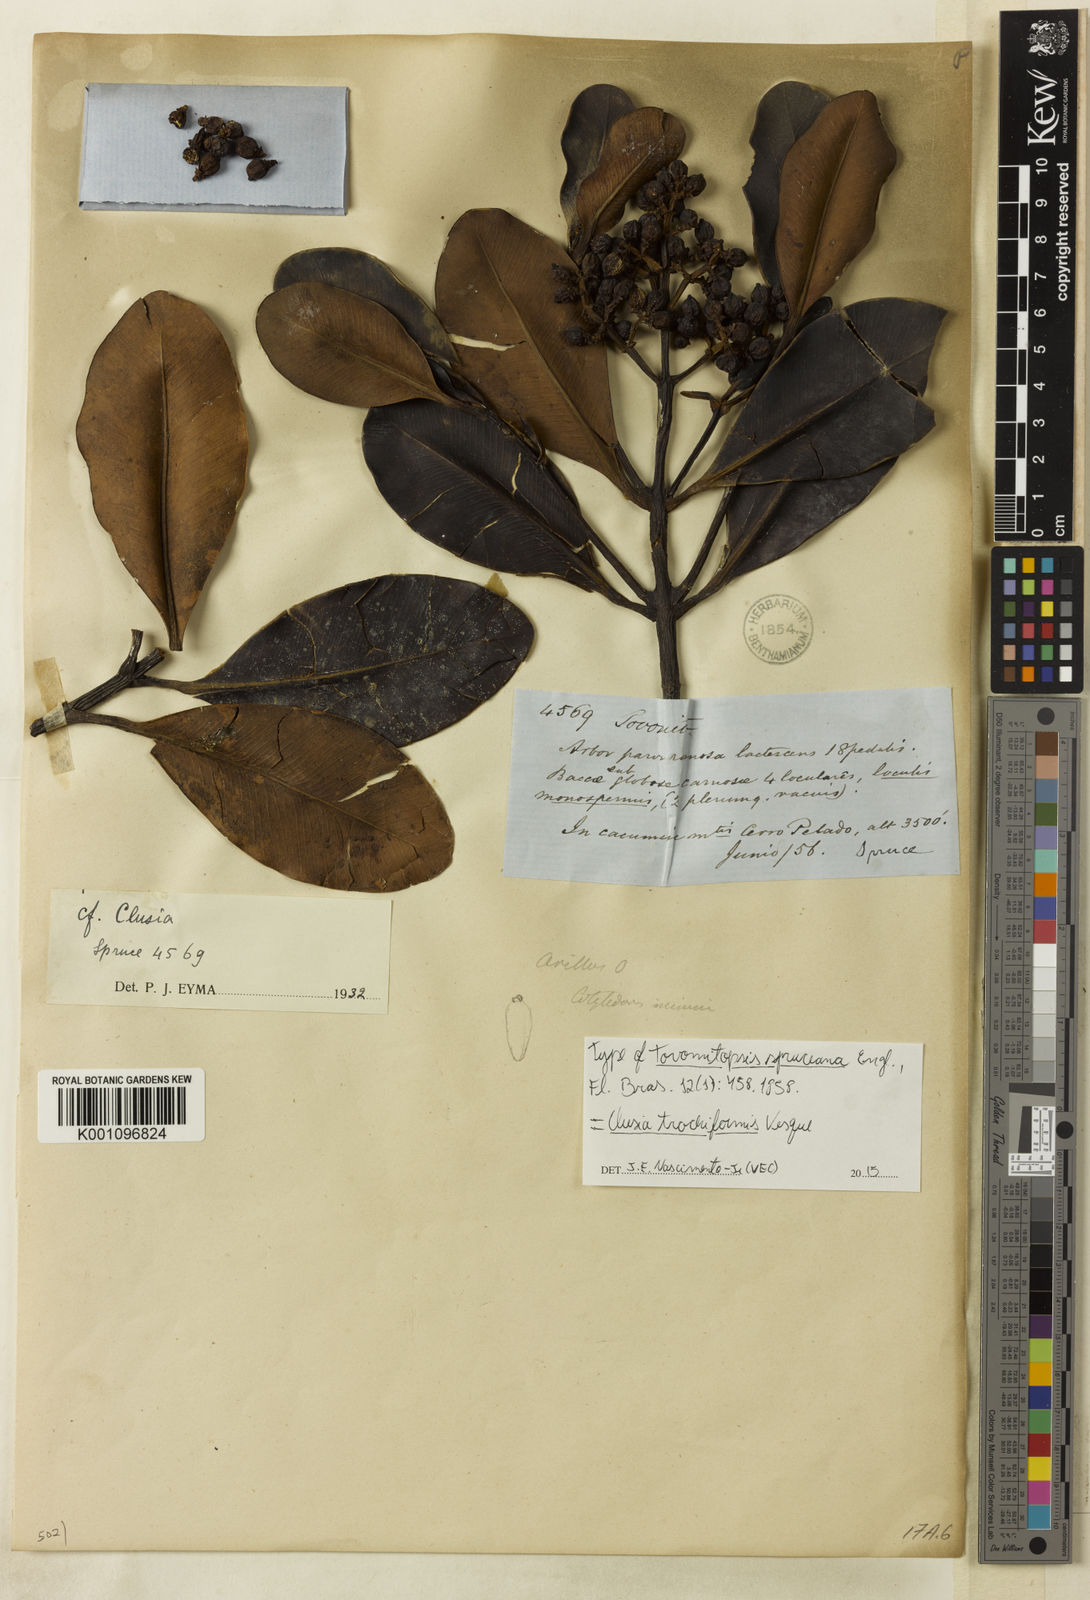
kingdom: Plantae
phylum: Tracheophyta
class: Magnoliopsida
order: Malpighiales
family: Clusiaceae
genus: Clusia
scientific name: Clusia trochiformis
